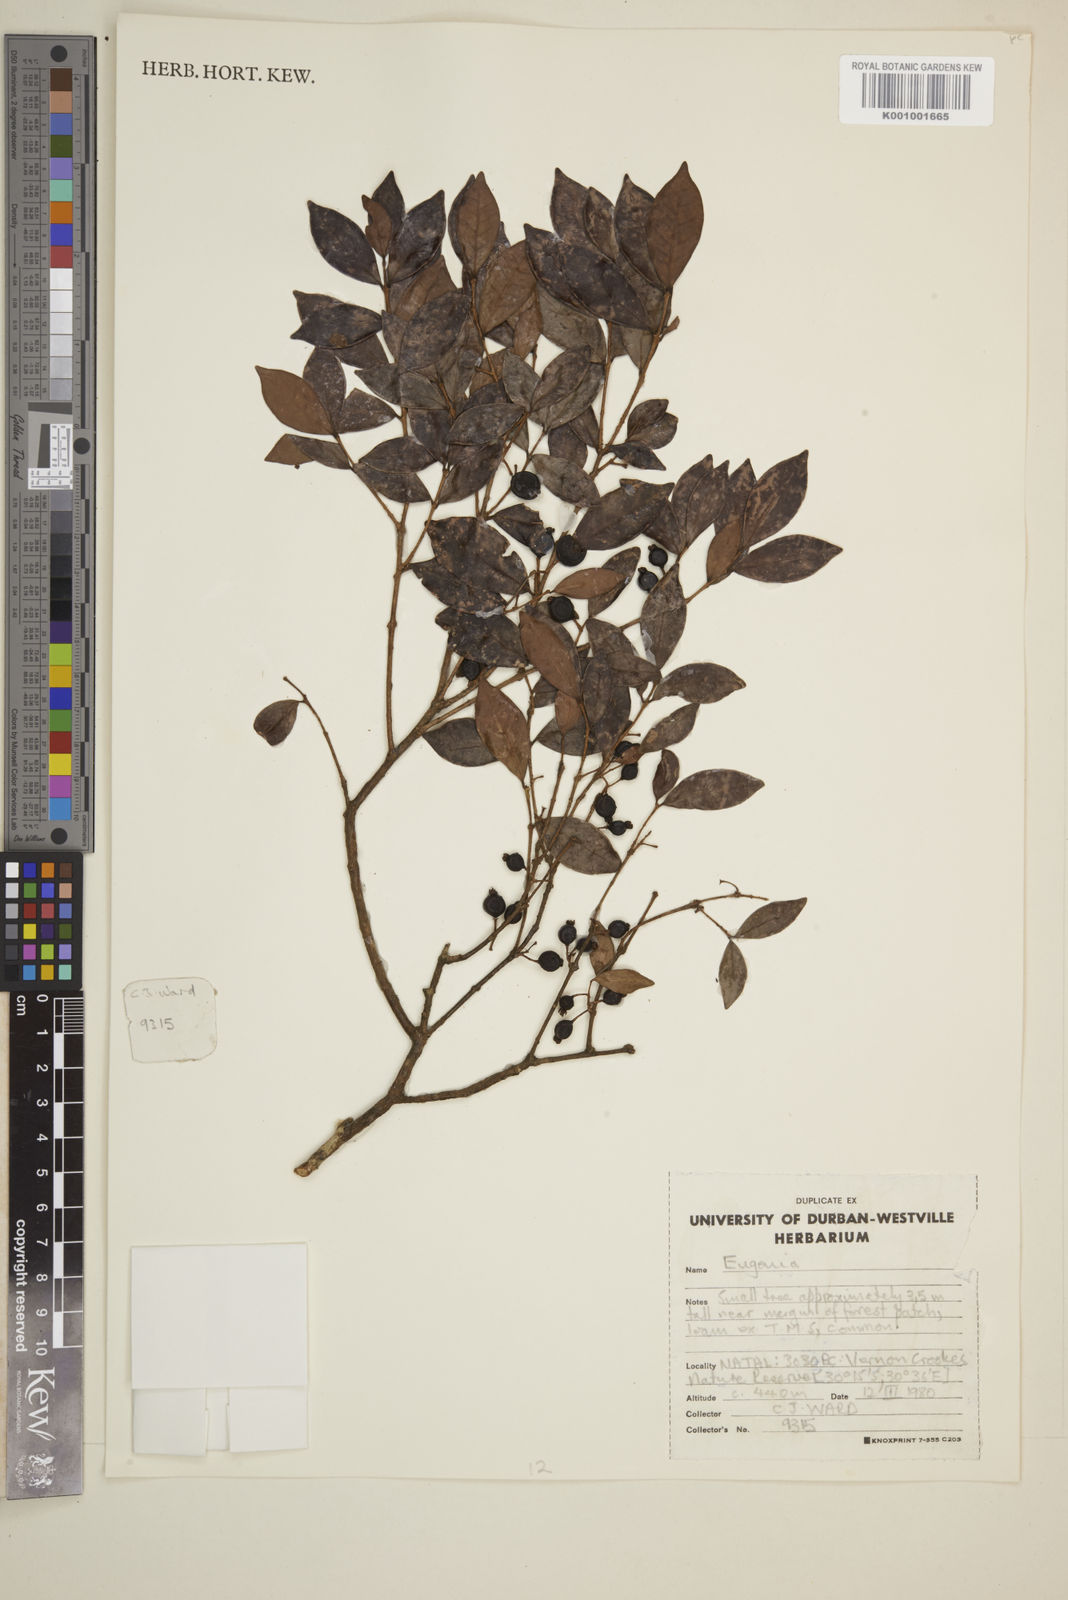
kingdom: Plantae
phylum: Tracheophyta
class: Magnoliopsida
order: Myrtales
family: Myrtaceae
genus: Eugenia
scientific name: Eugenia
